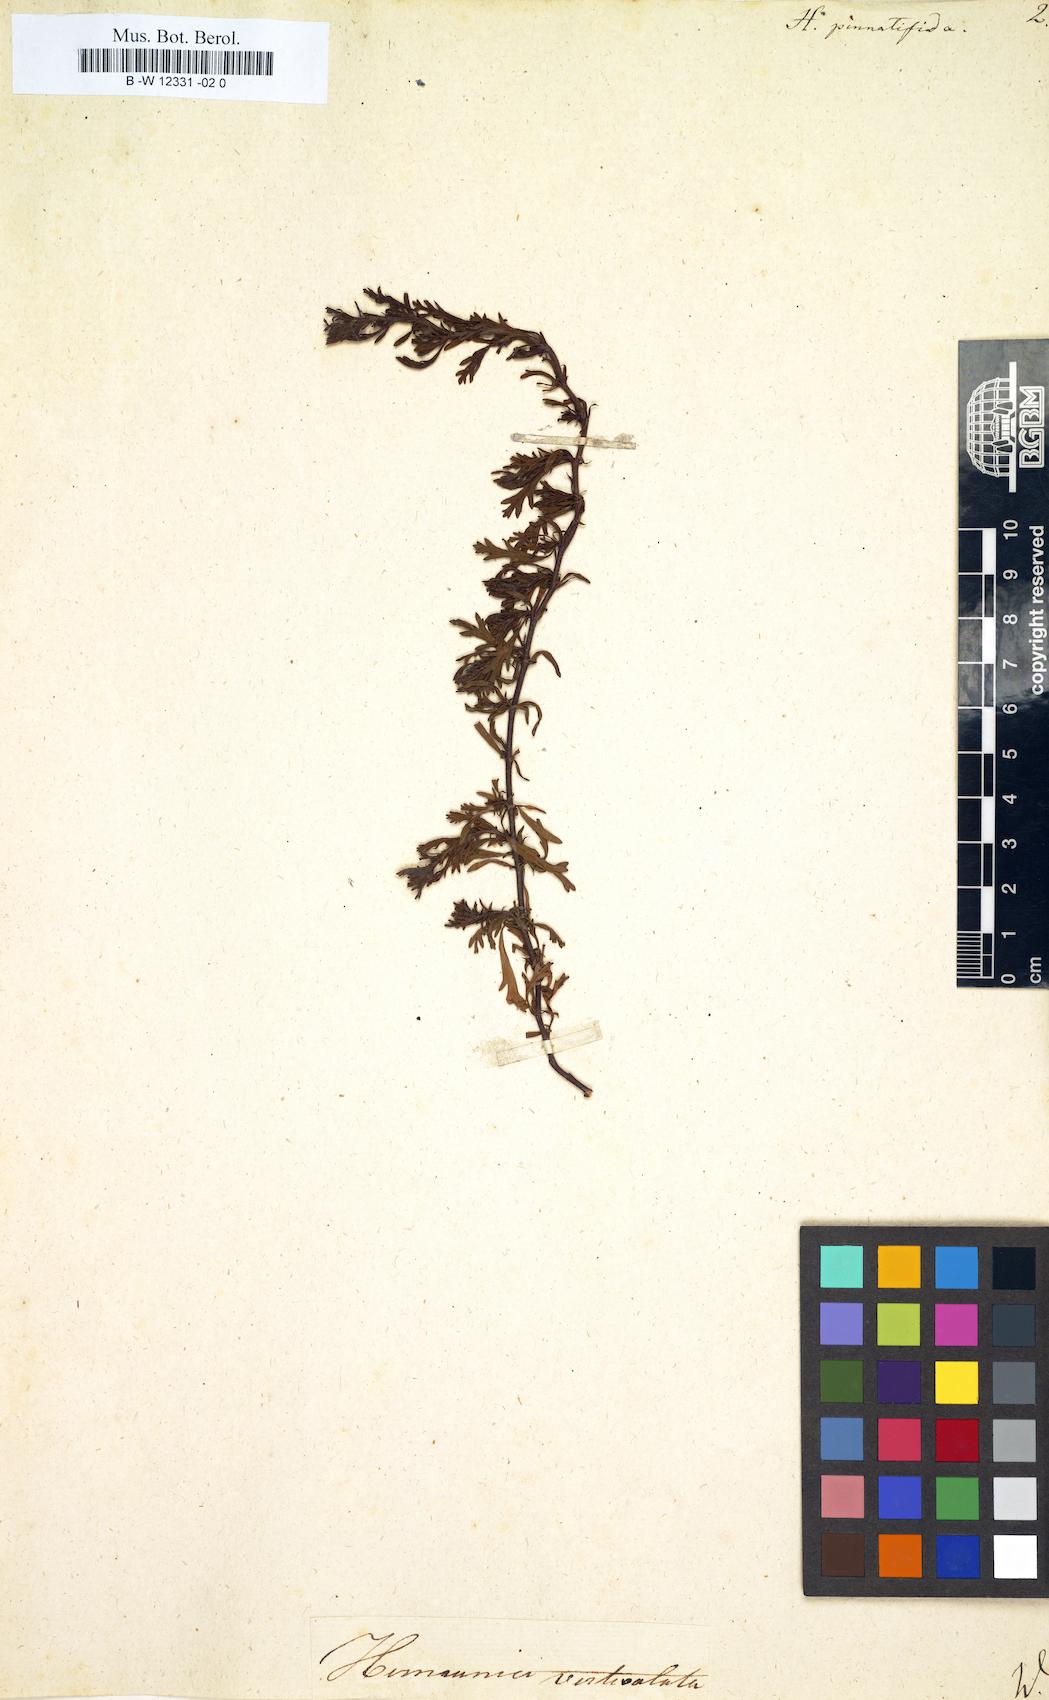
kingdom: Plantae
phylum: Tracheophyta
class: Magnoliopsida
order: Malvales
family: Malvaceae
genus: Hermannia
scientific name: Hermannia
